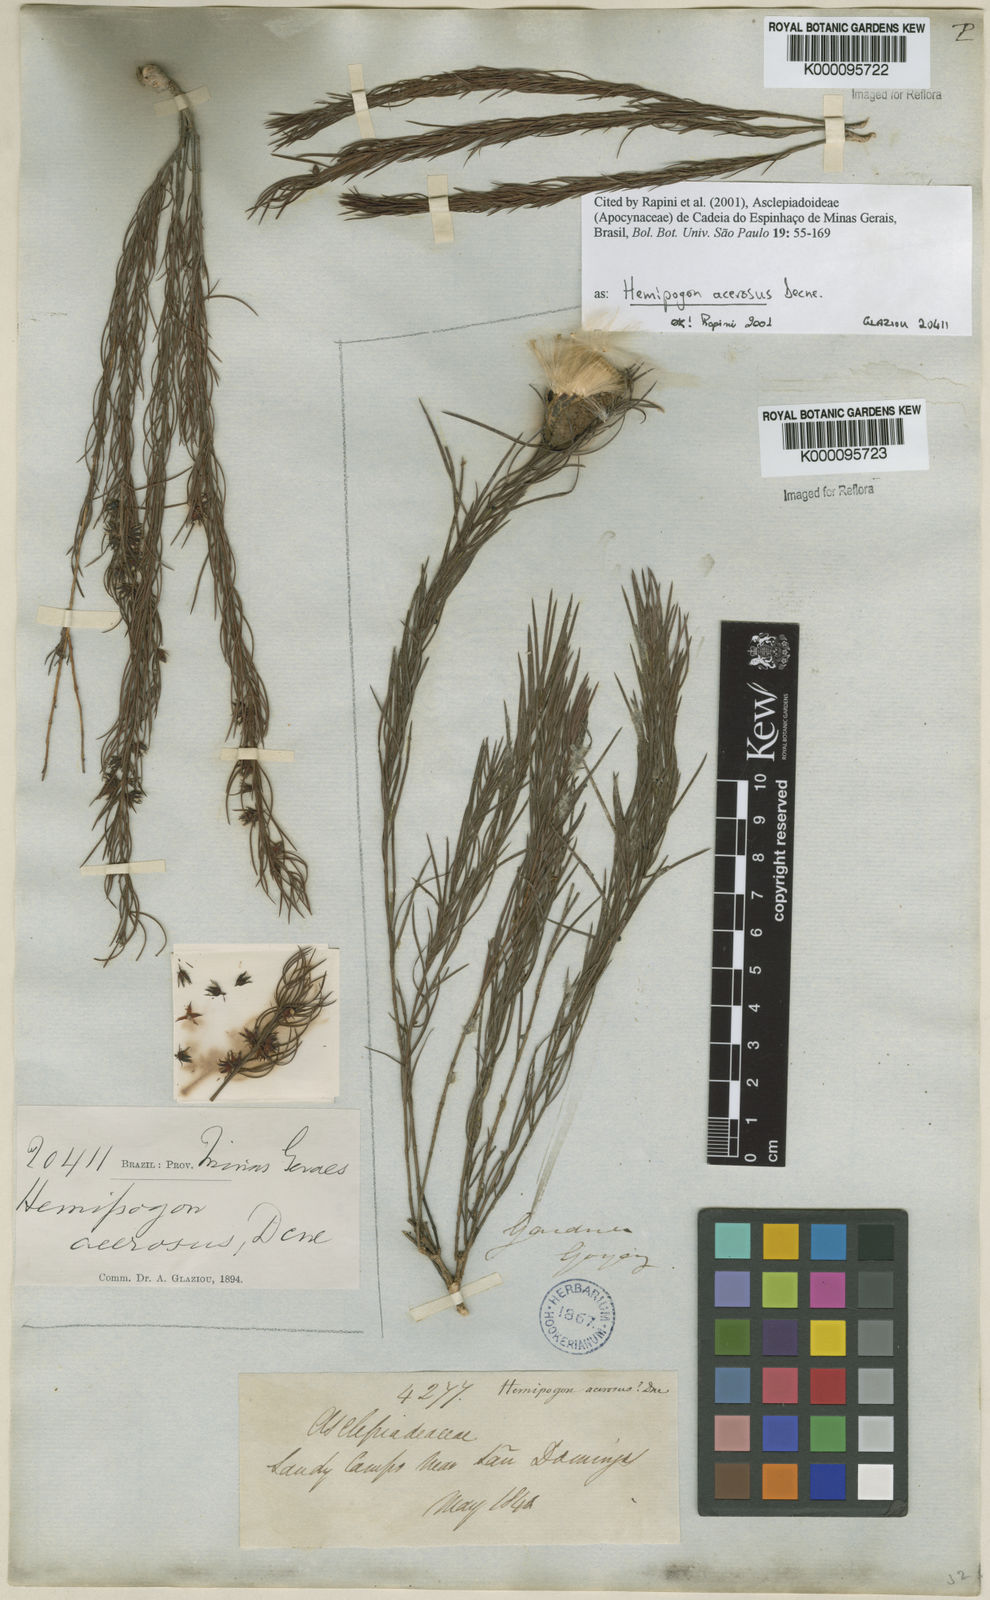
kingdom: Plantae
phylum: Tracheophyta
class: Magnoliopsida
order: Gentianales
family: Apocynaceae
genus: Hemipogon
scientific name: Hemipogon acerosus
